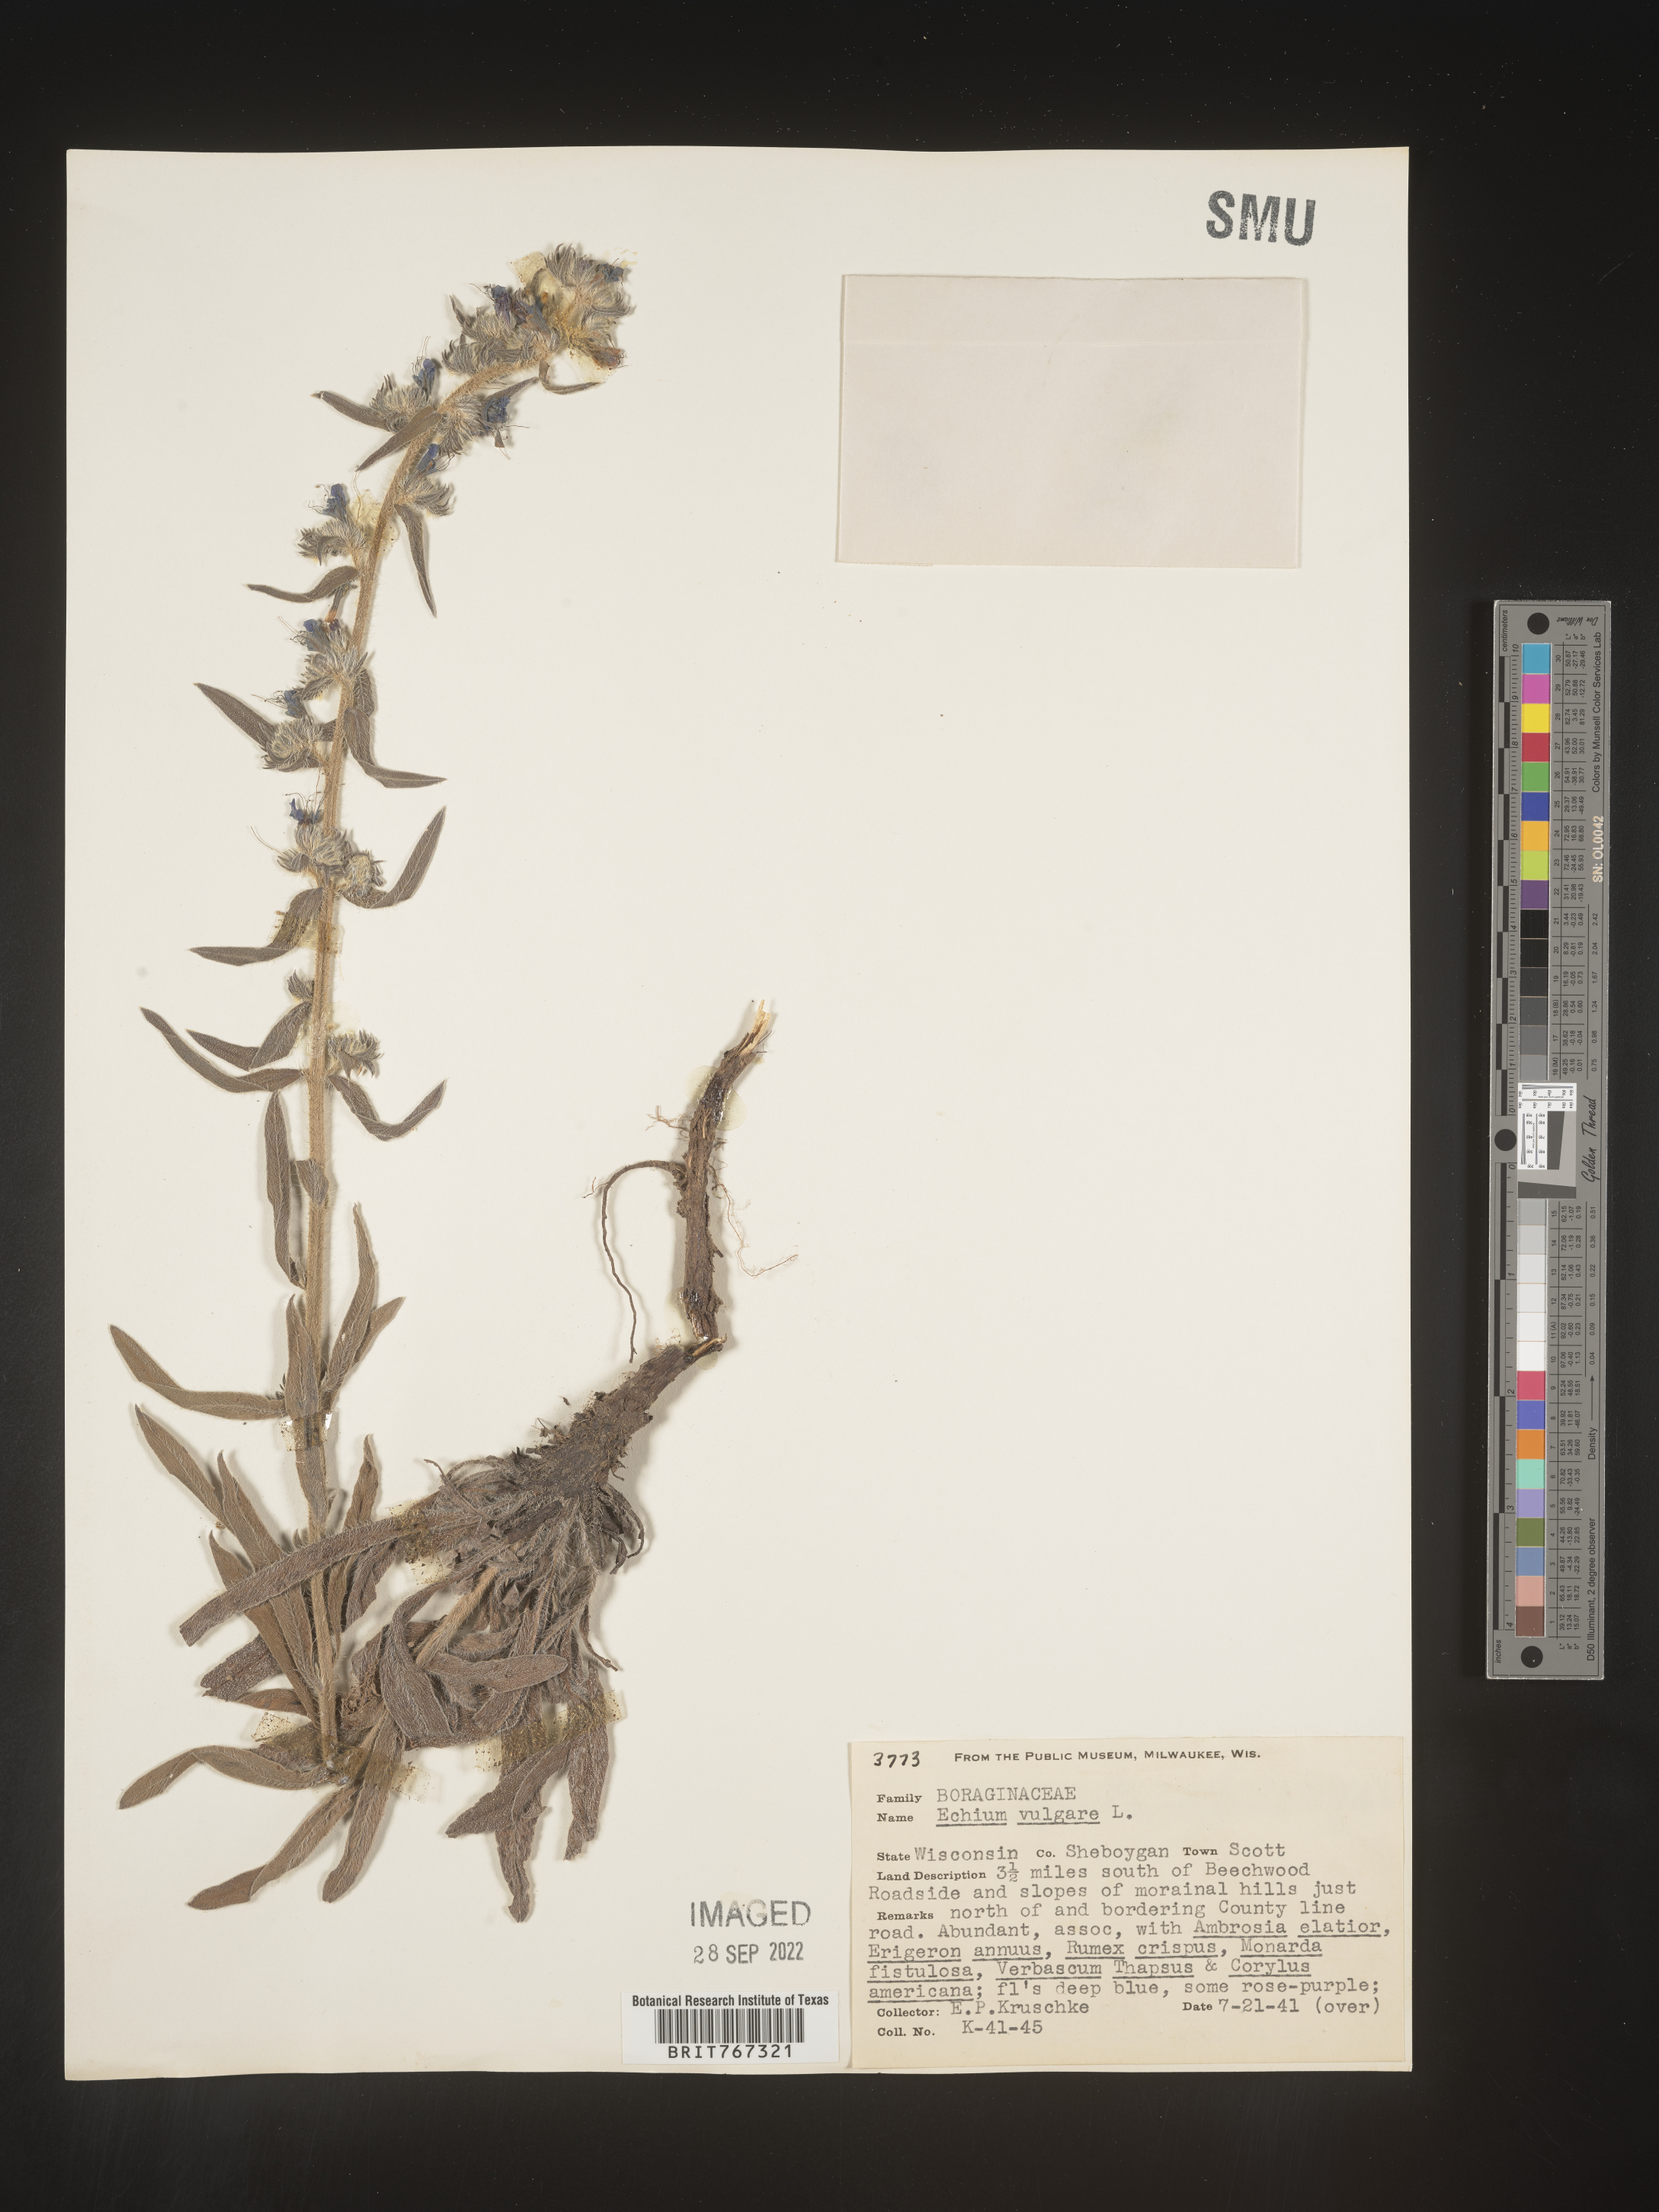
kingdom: Plantae
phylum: Tracheophyta
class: Magnoliopsida
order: Boraginales
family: Boraginaceae
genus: Echium
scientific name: Echium
